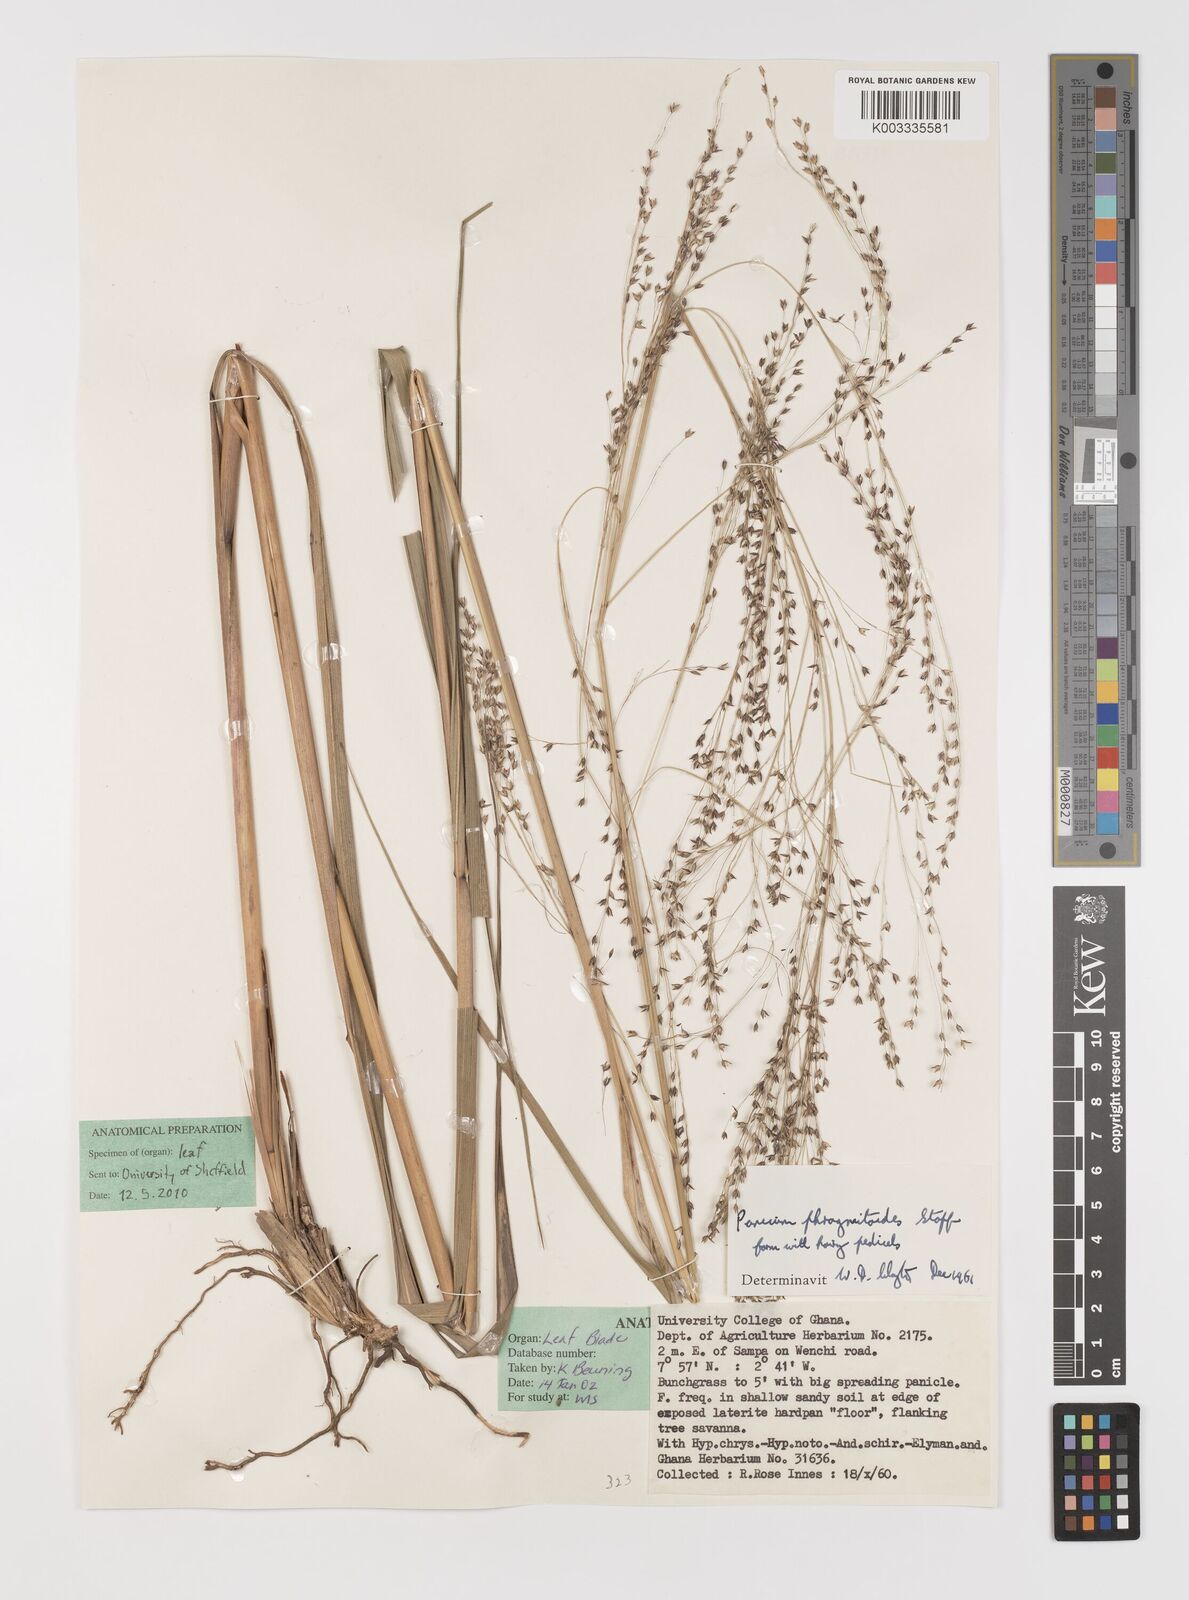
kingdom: Plantae
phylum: Tracheophyta
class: Liliopsida
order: Poales
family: Poaceae
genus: Panicum
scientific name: Panicum phragmitoides
